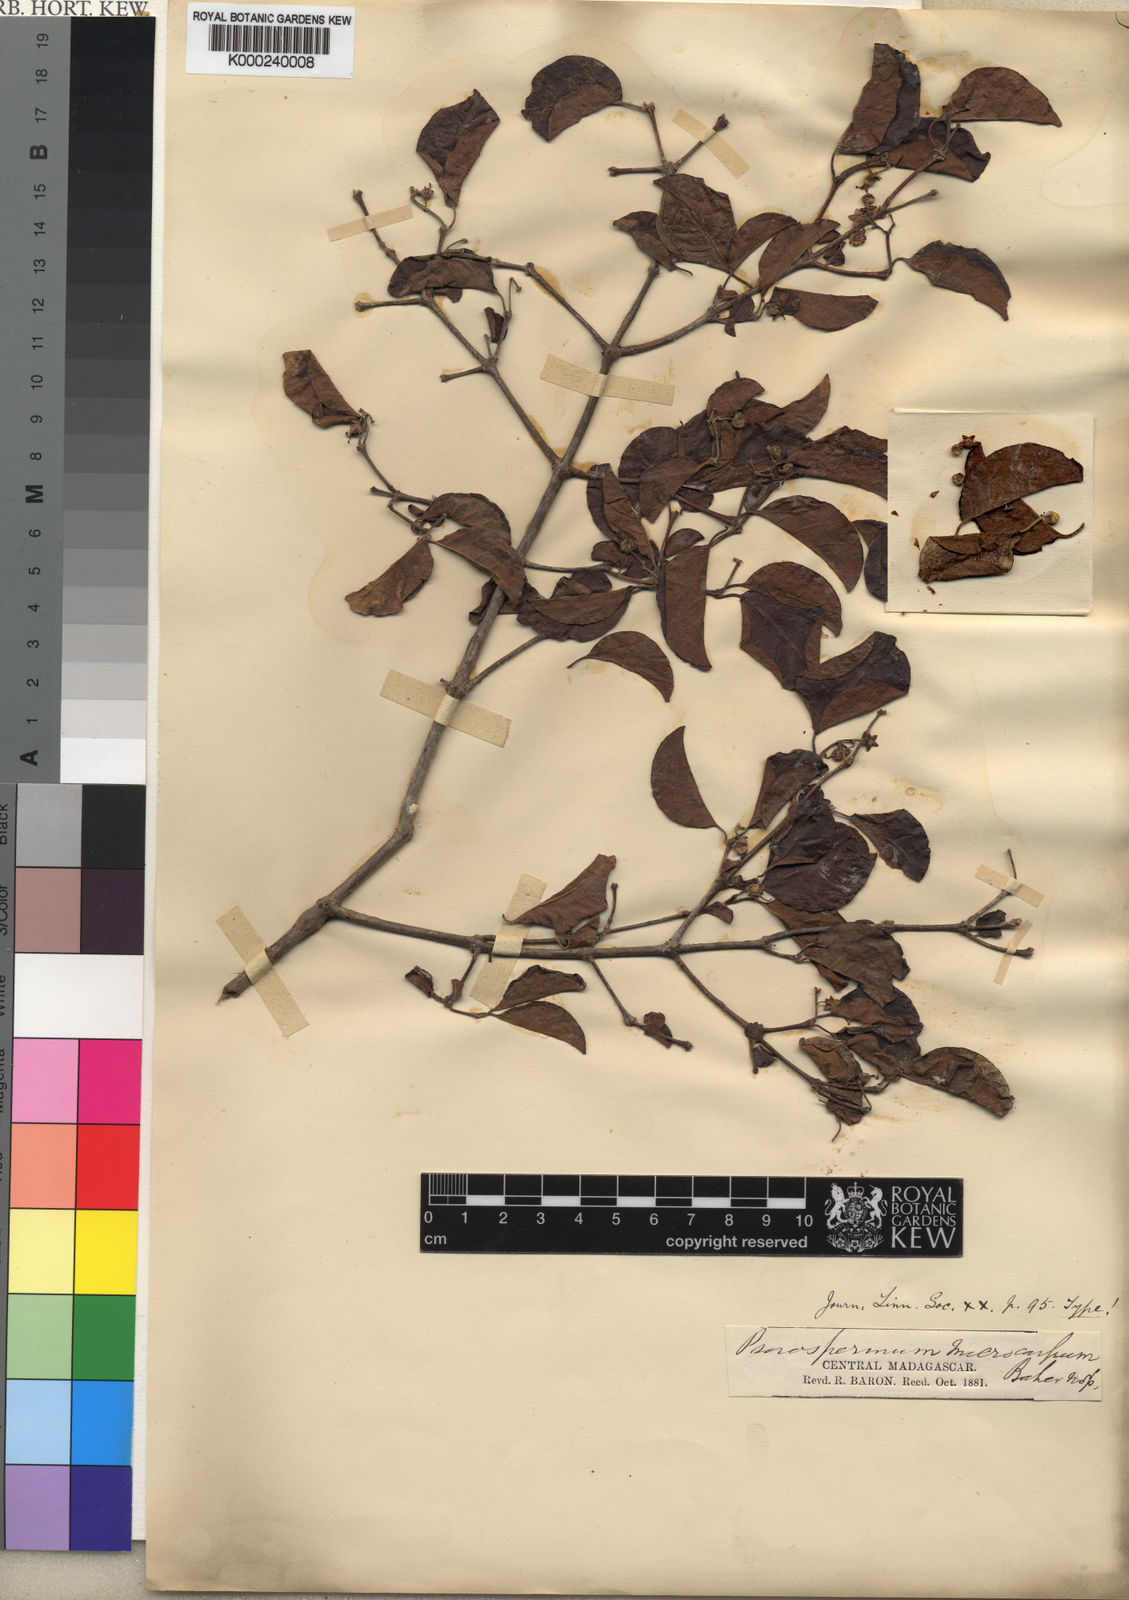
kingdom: Plantae
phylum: Tracheophyta
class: Magnoliopsida
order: Malpighiales
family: Hypericaceae
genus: Psorospermum
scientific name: Psorospermum fanerana
